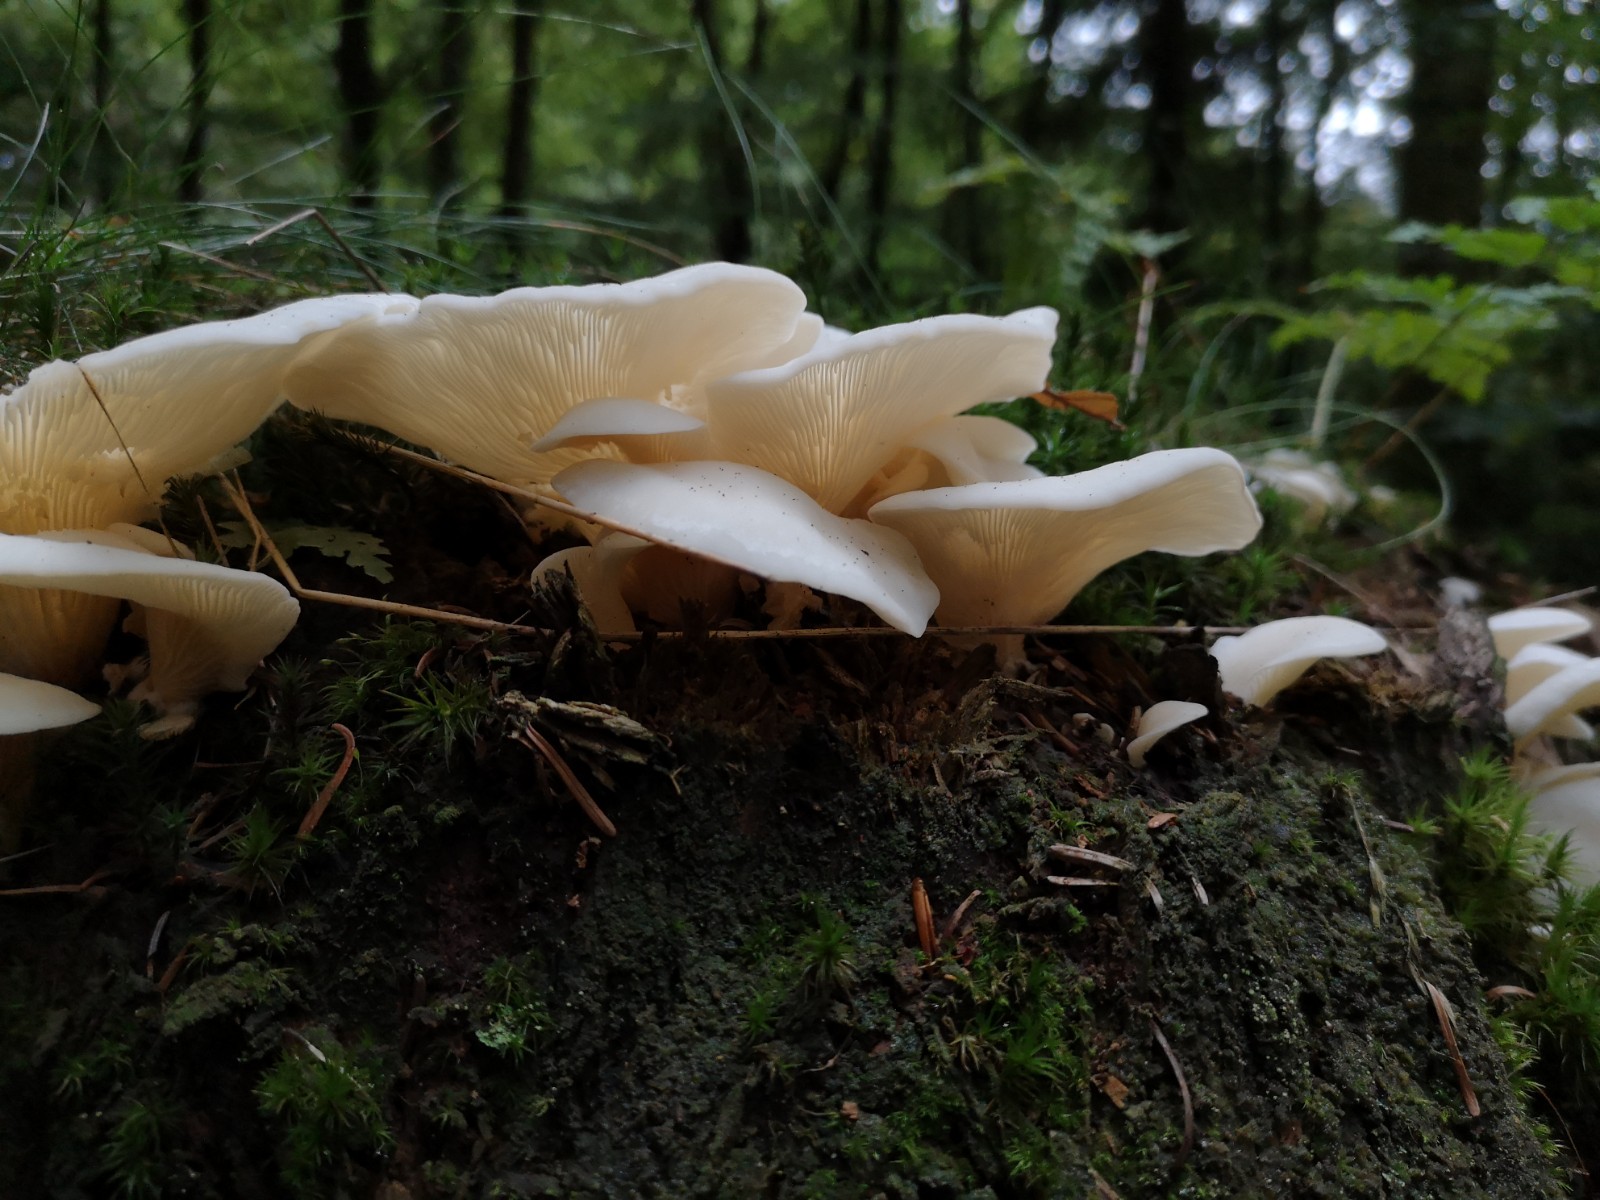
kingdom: Fungi
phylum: Basidiomycota
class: Agaricomycetes
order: Agaricales
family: Marasmiaceae
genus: Pleurocybella
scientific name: Pleurocybella porrigens
